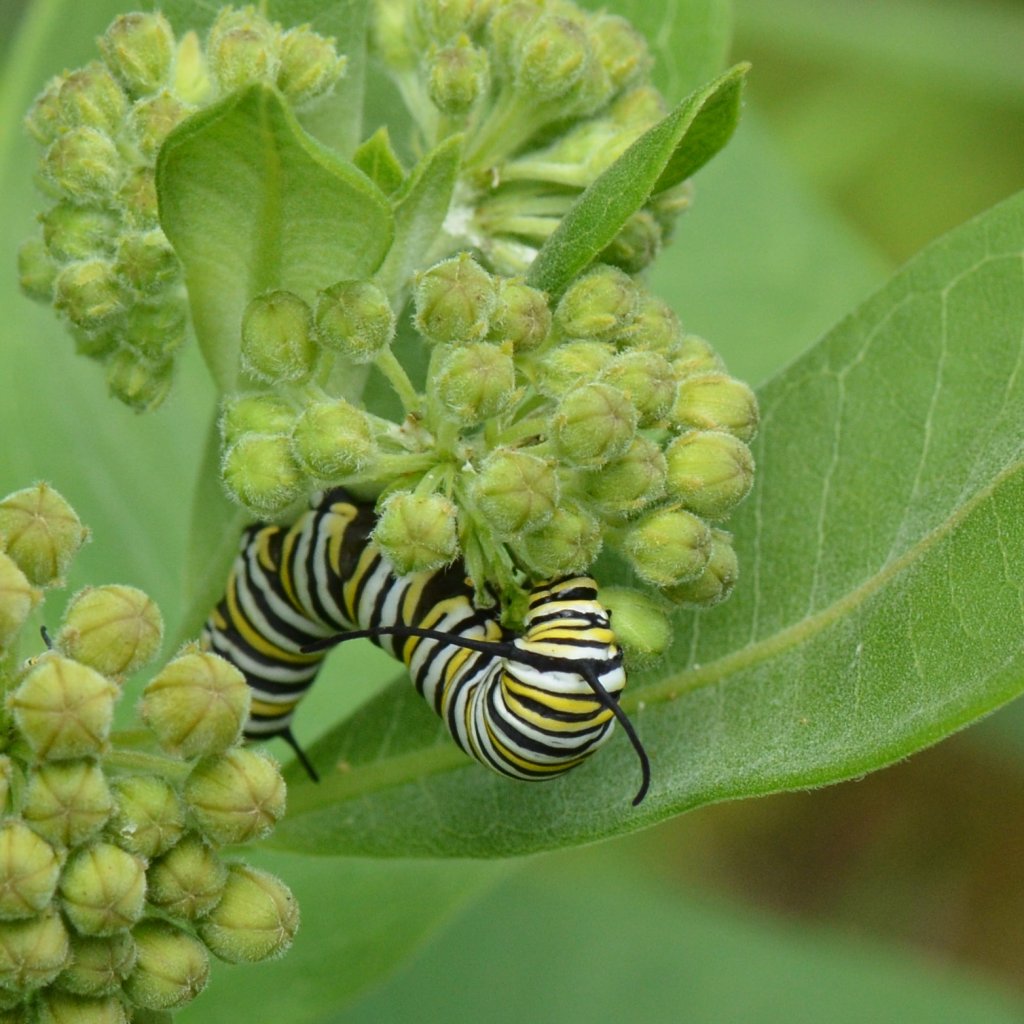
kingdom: Animalia
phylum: Arthropoda
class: Insecta
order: Lepidoptera
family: Nymphalidae
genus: Danaus
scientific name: Danaus plexippus
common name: Monarch
